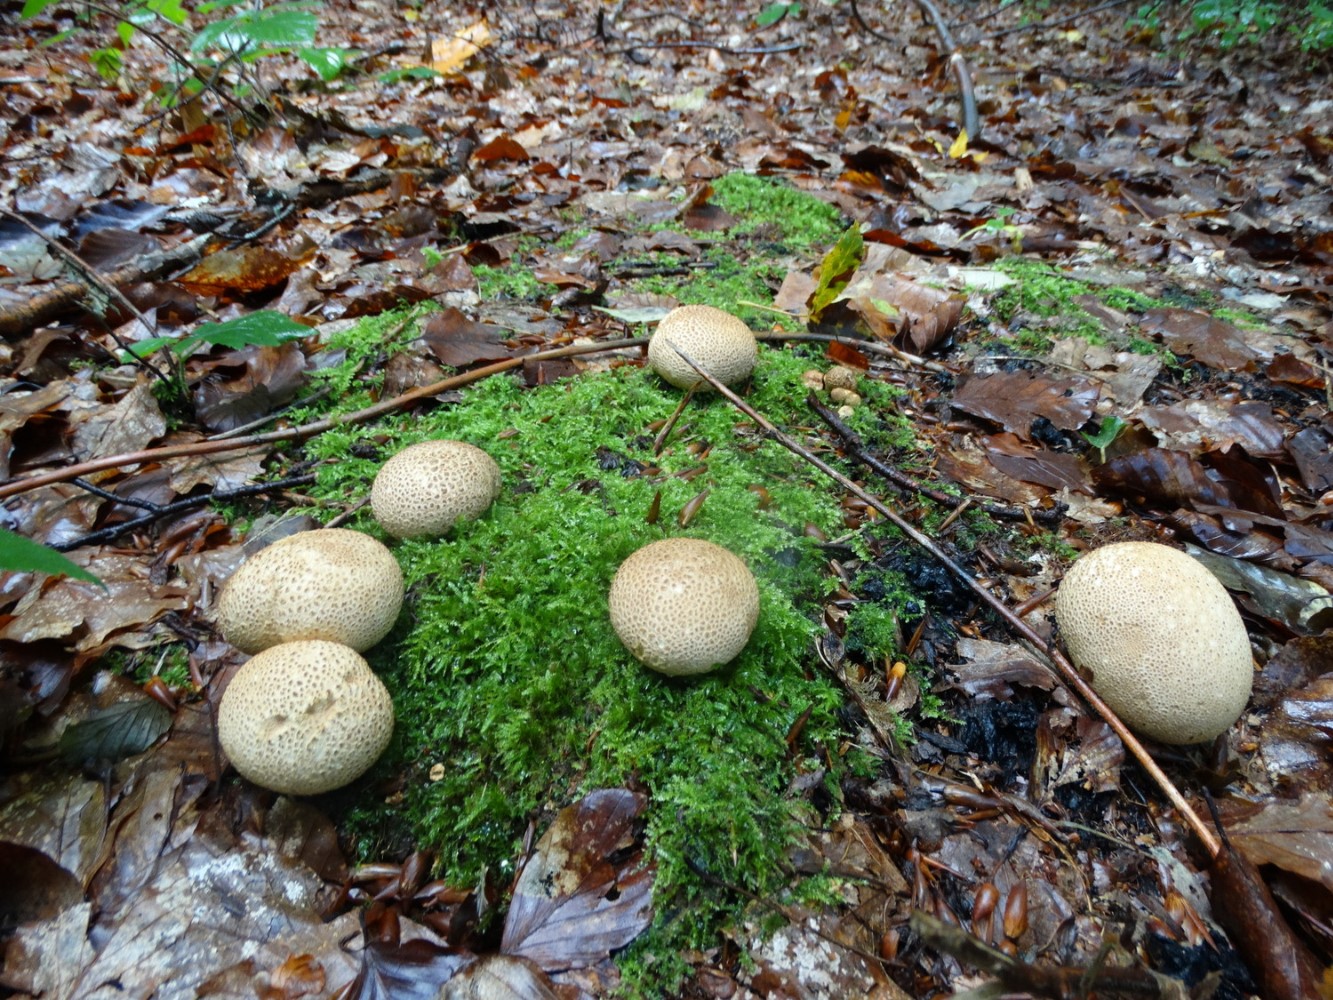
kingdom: Fungi
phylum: Basidiomycota
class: Agaricomycetes
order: Boletales
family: Sclerodermataceae
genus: Scleroderma
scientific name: Scleroderma citrinum
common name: almindelig bruskbold
